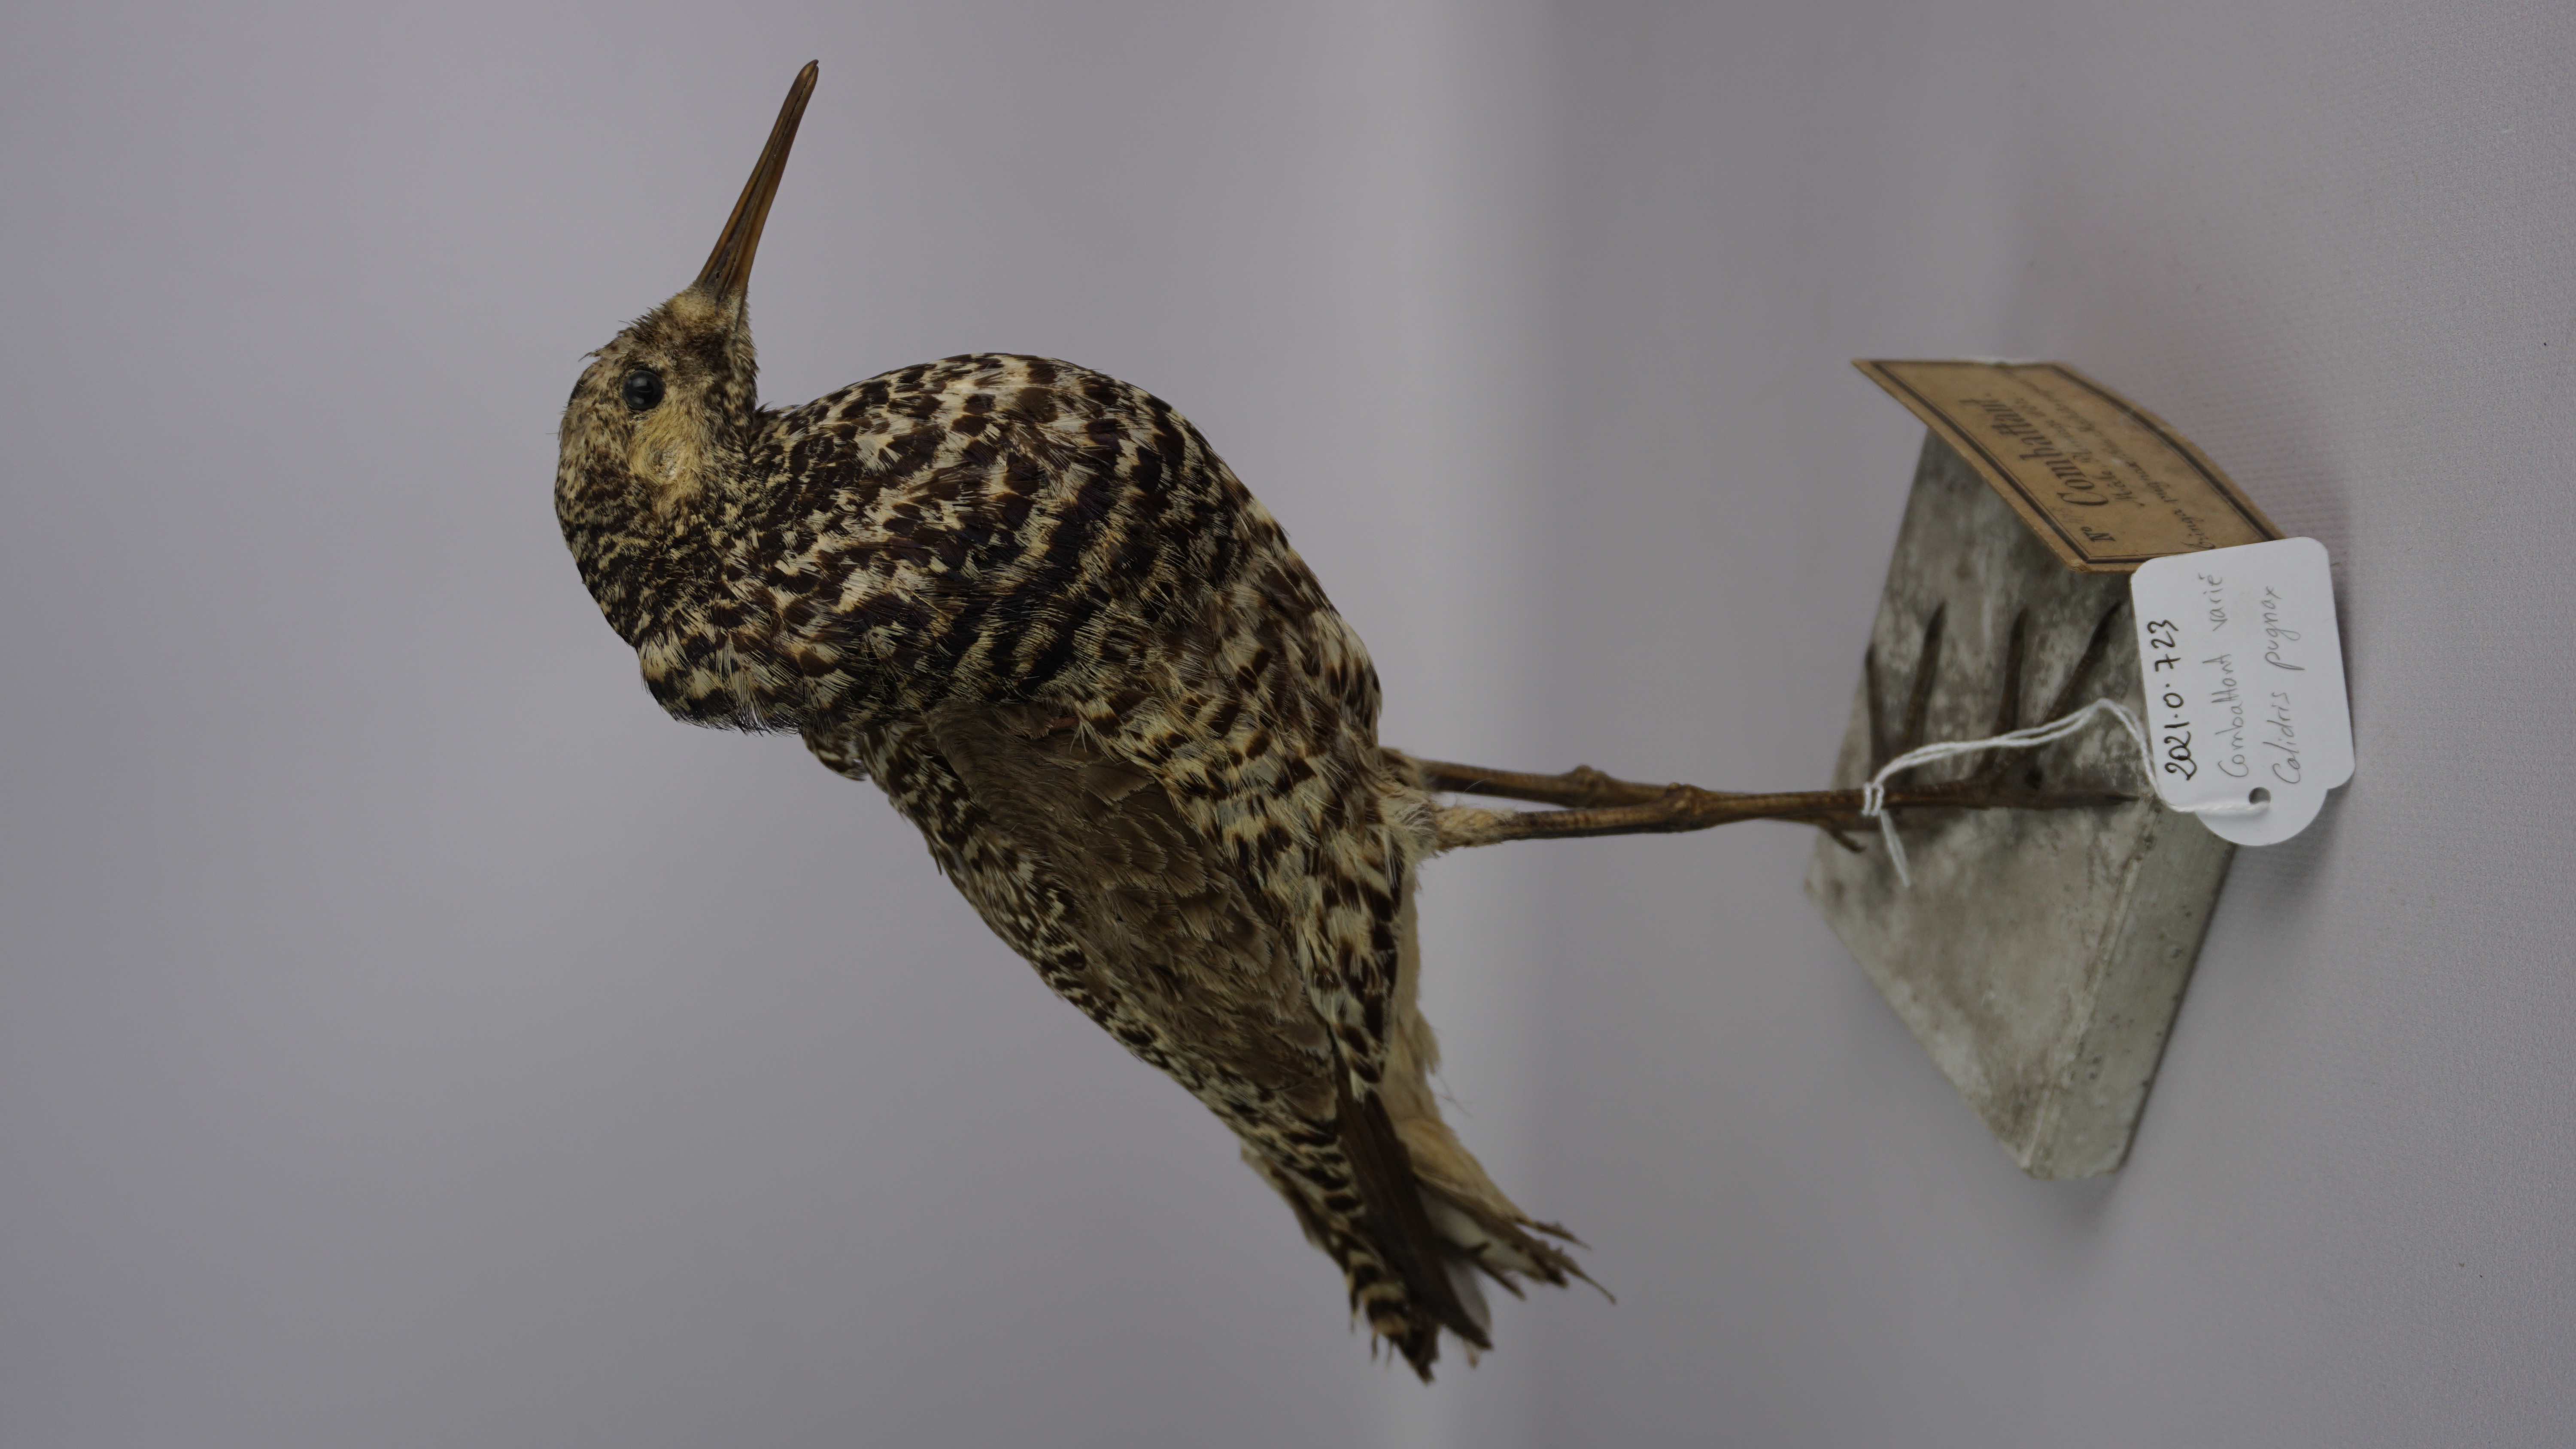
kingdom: Animalia
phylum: Chordata
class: Aves
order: Charadriiformes
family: Scolopacidae
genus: Calidris
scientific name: Calidris pugnax
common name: Ruff
